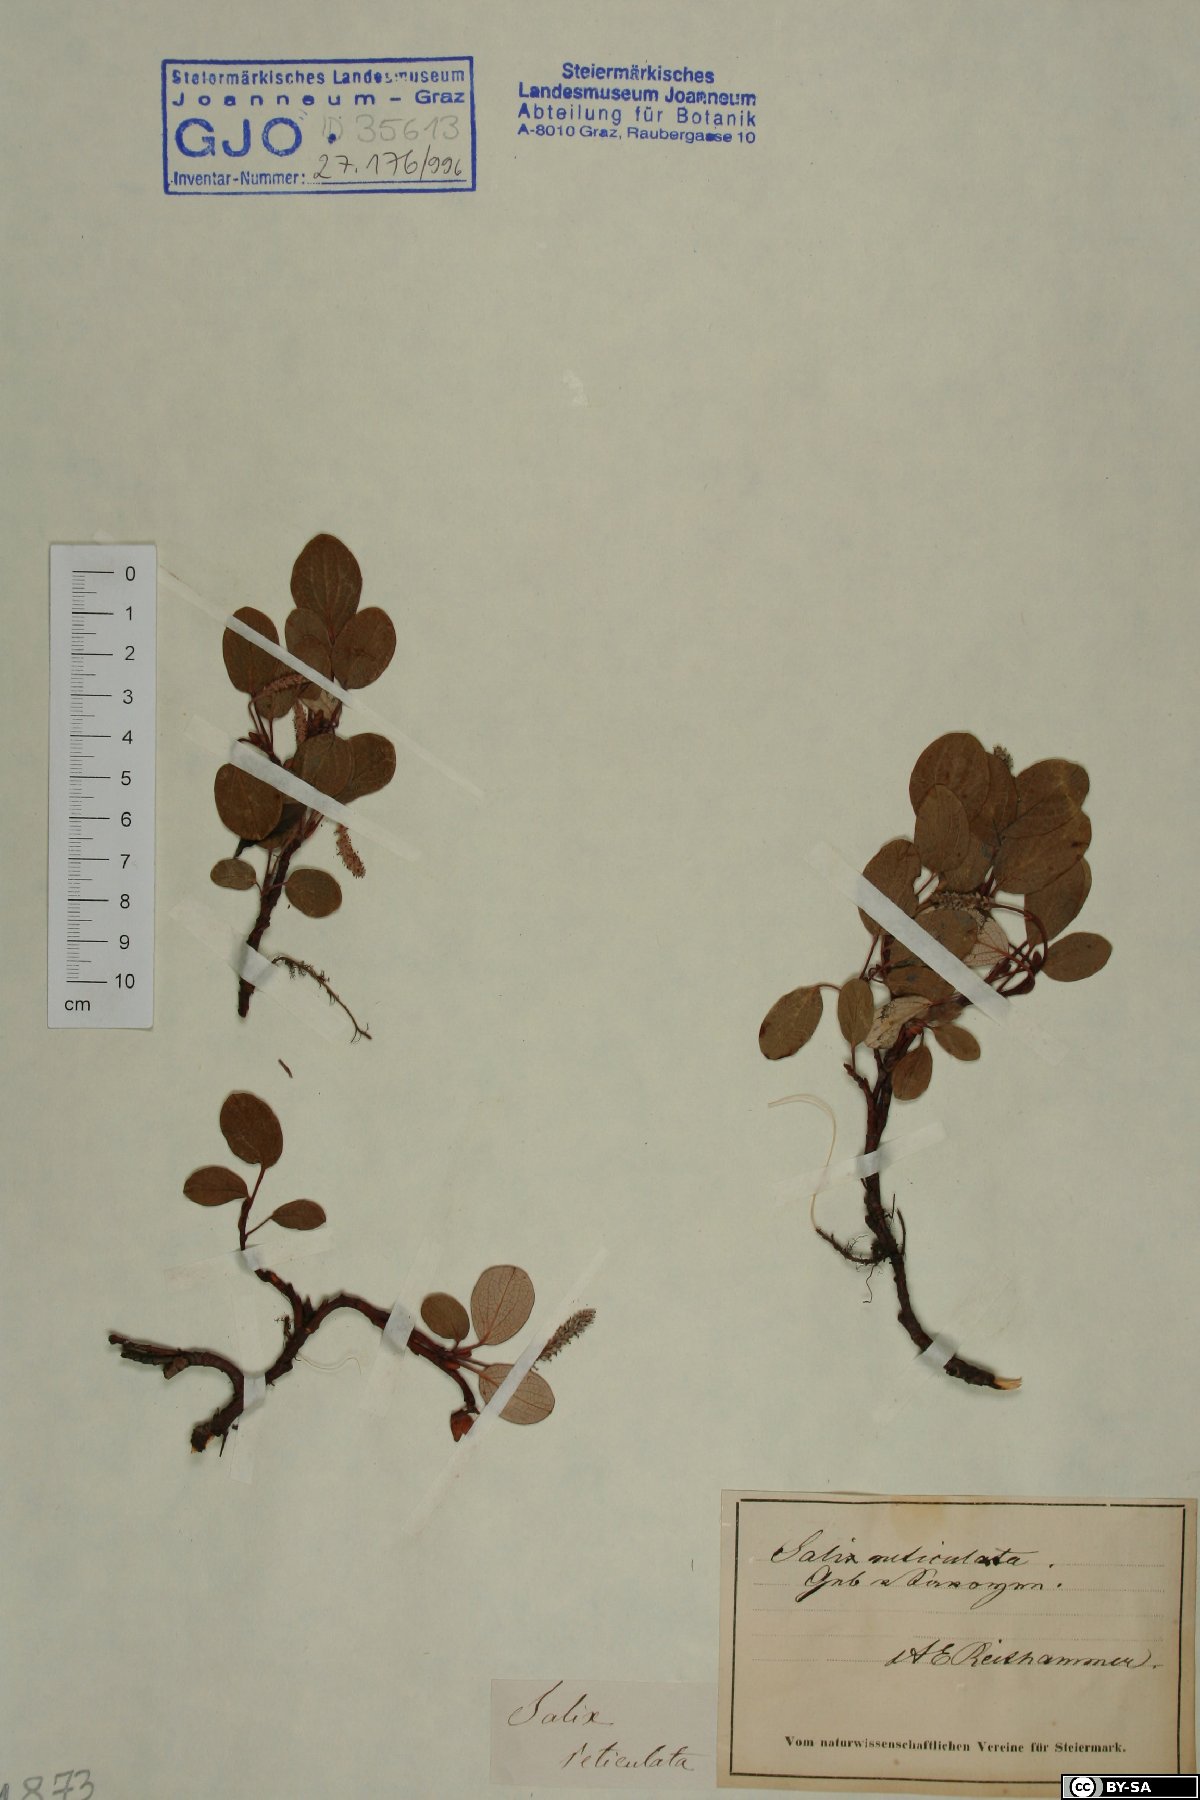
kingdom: Plantae
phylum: Tracheophyta
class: Magnoliopsida
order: Malpighiales
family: Salicaceae
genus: Salix
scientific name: Salix reticulata
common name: Net-leaved willow
